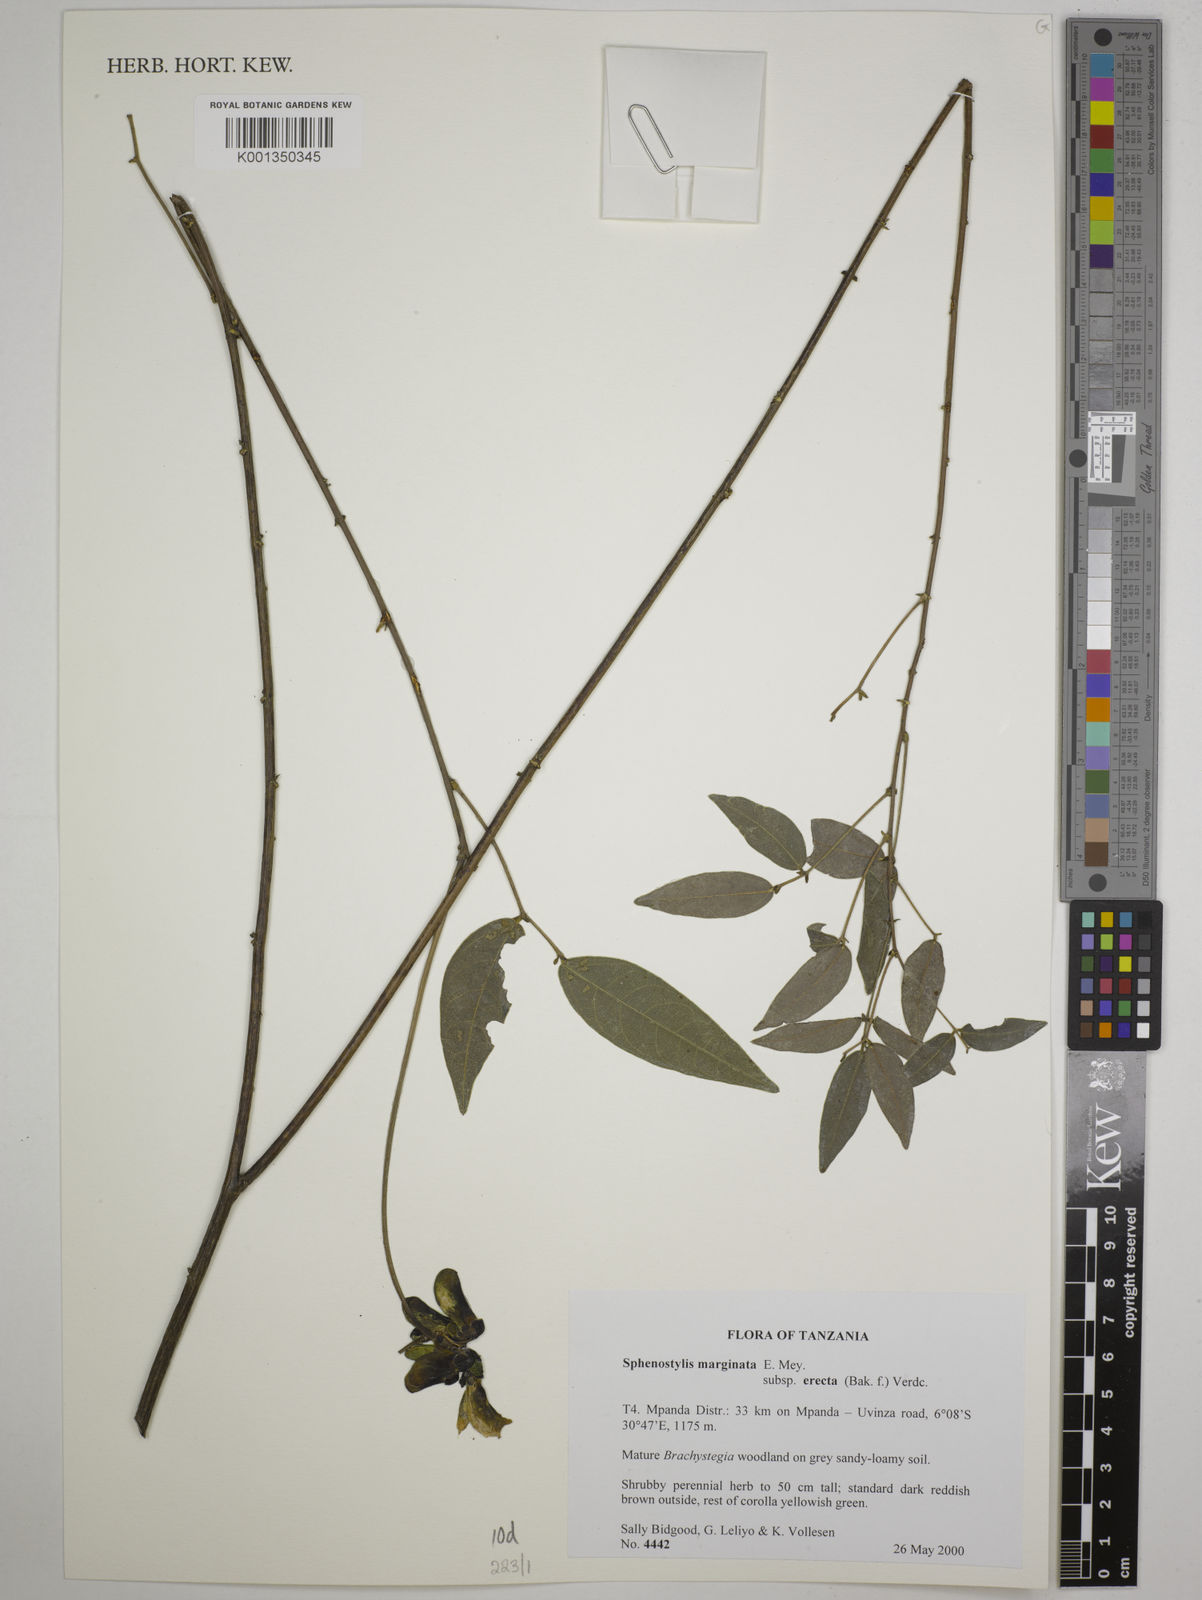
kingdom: Plantae
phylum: Tracheophyta
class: Magnoliopsida
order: Fabales
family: Fabaceae
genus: Sphenostylis
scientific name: Sphenostylis
